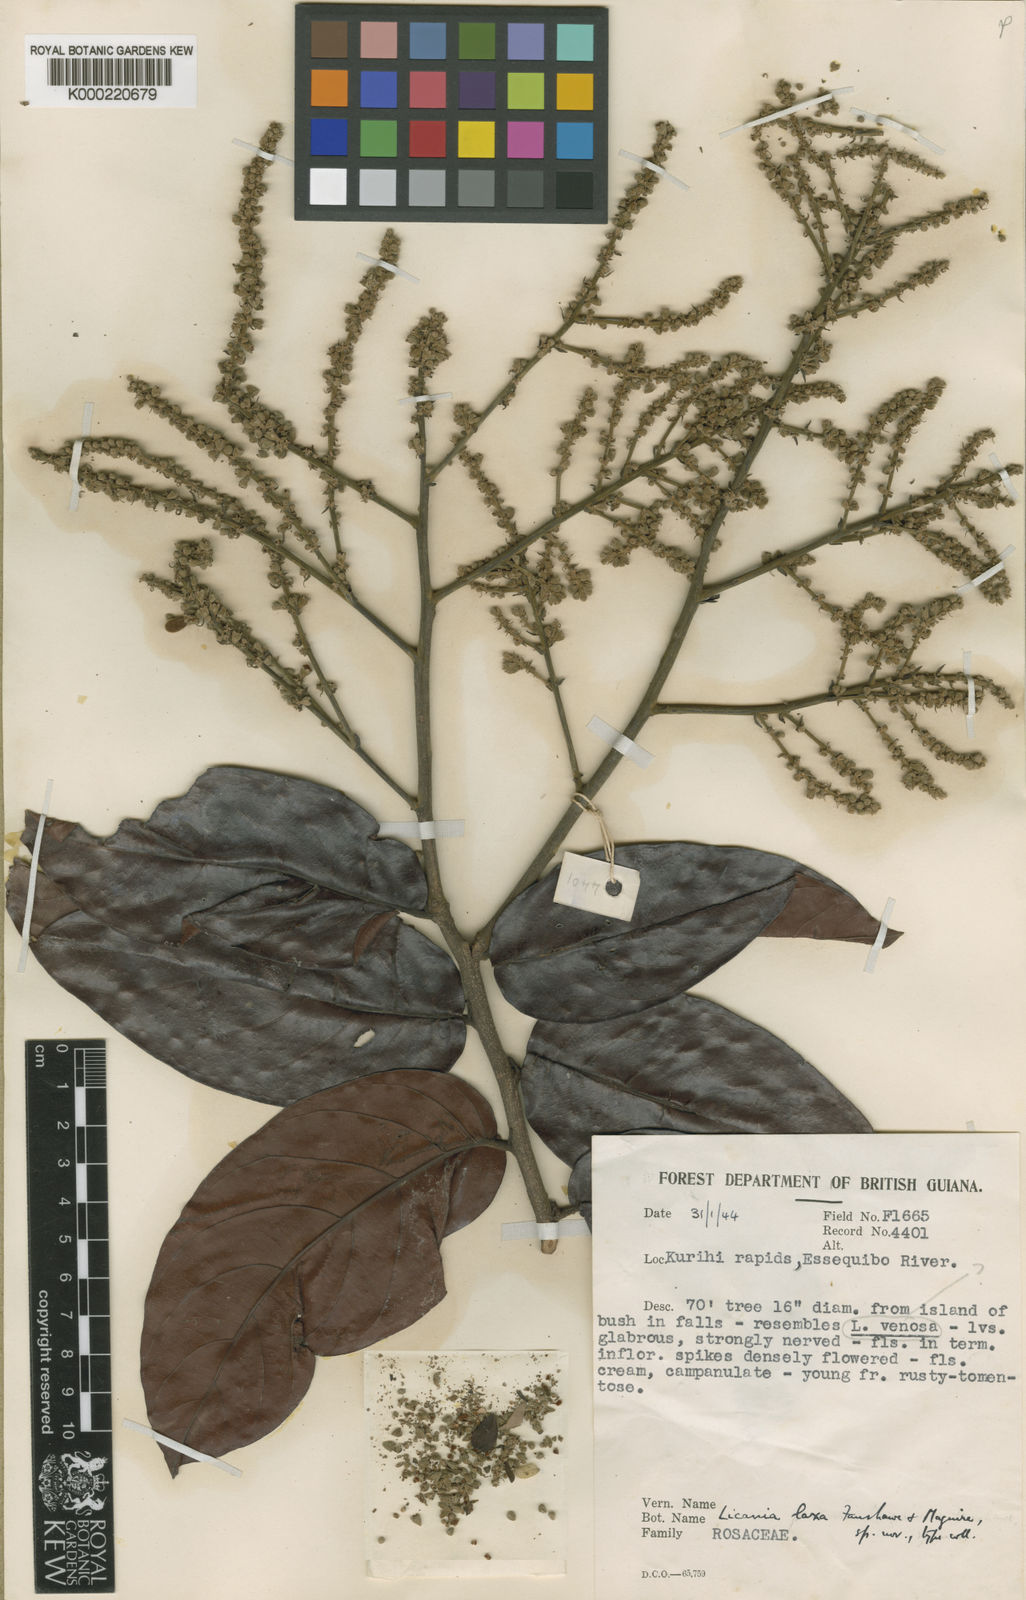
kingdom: Plantae
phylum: Tracheophyta
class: Magnoliopsida
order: Malpighiales
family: Chrysobalanaceae
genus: Licania
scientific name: Licania polita
